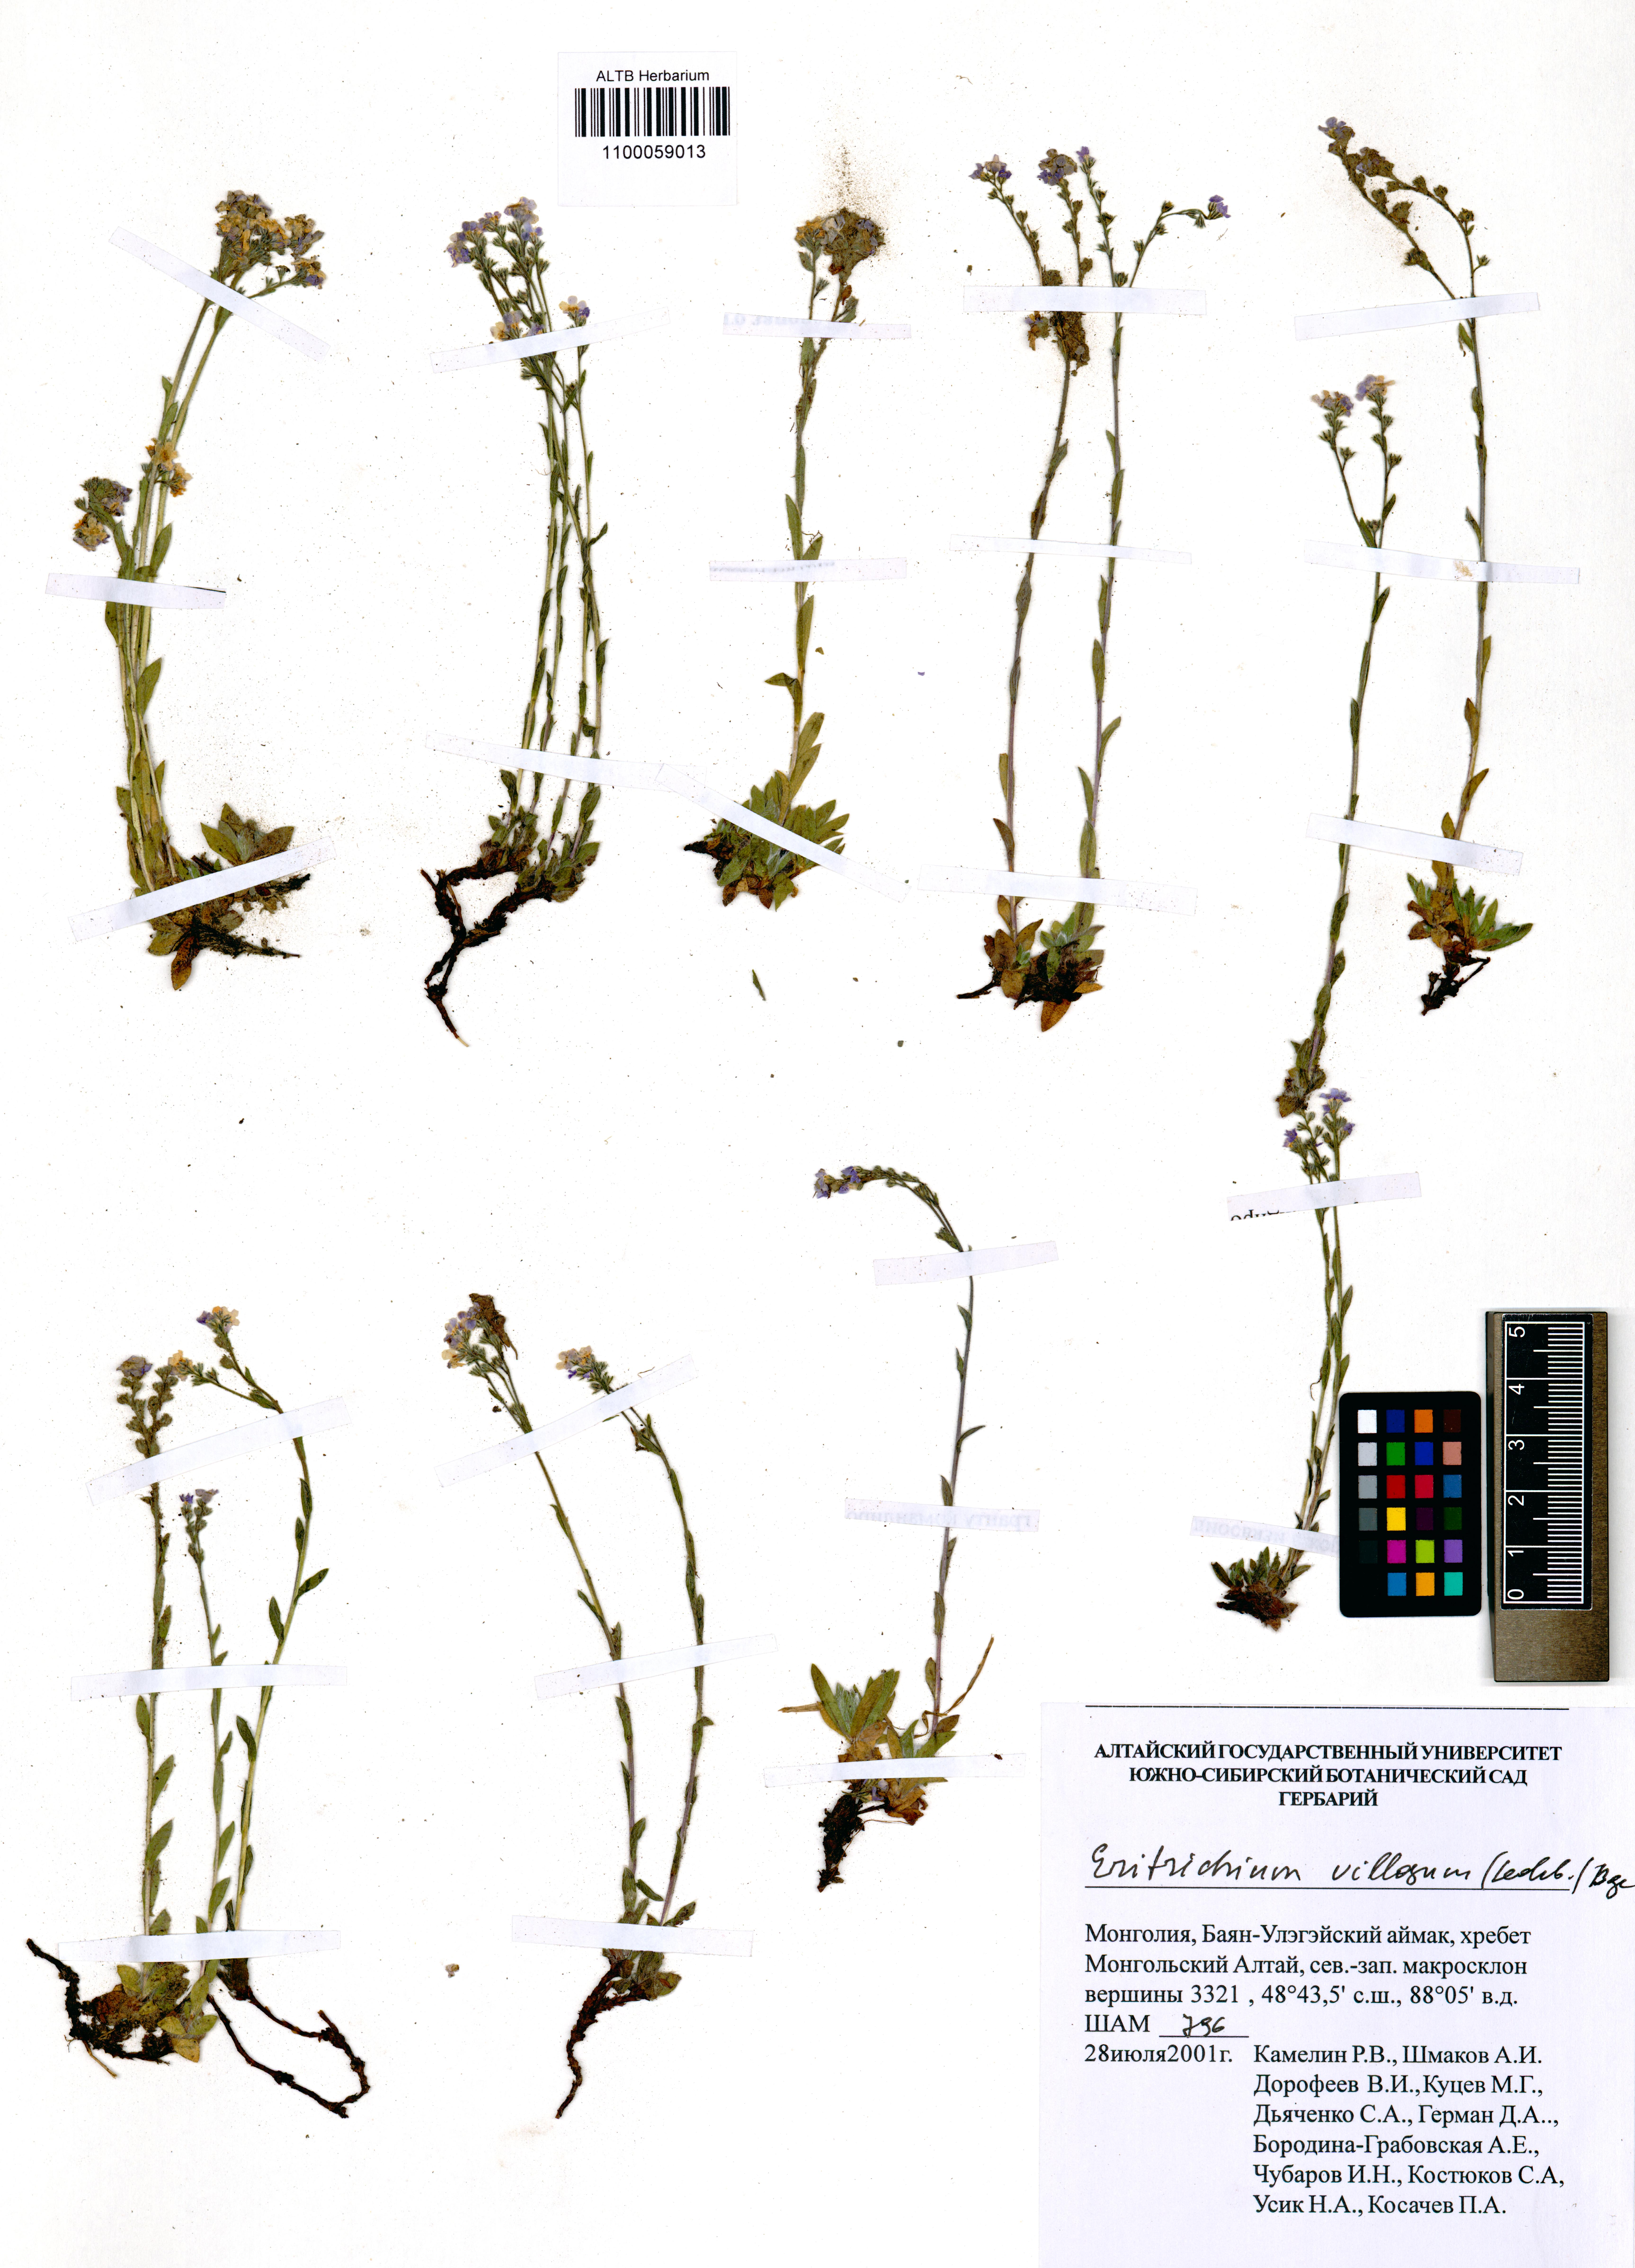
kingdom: Plantae
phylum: Tracheophyta
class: Magnoliopsida
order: Boraginales
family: Boraginaceae
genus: Eritrichium
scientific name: Eritrichium villosum
